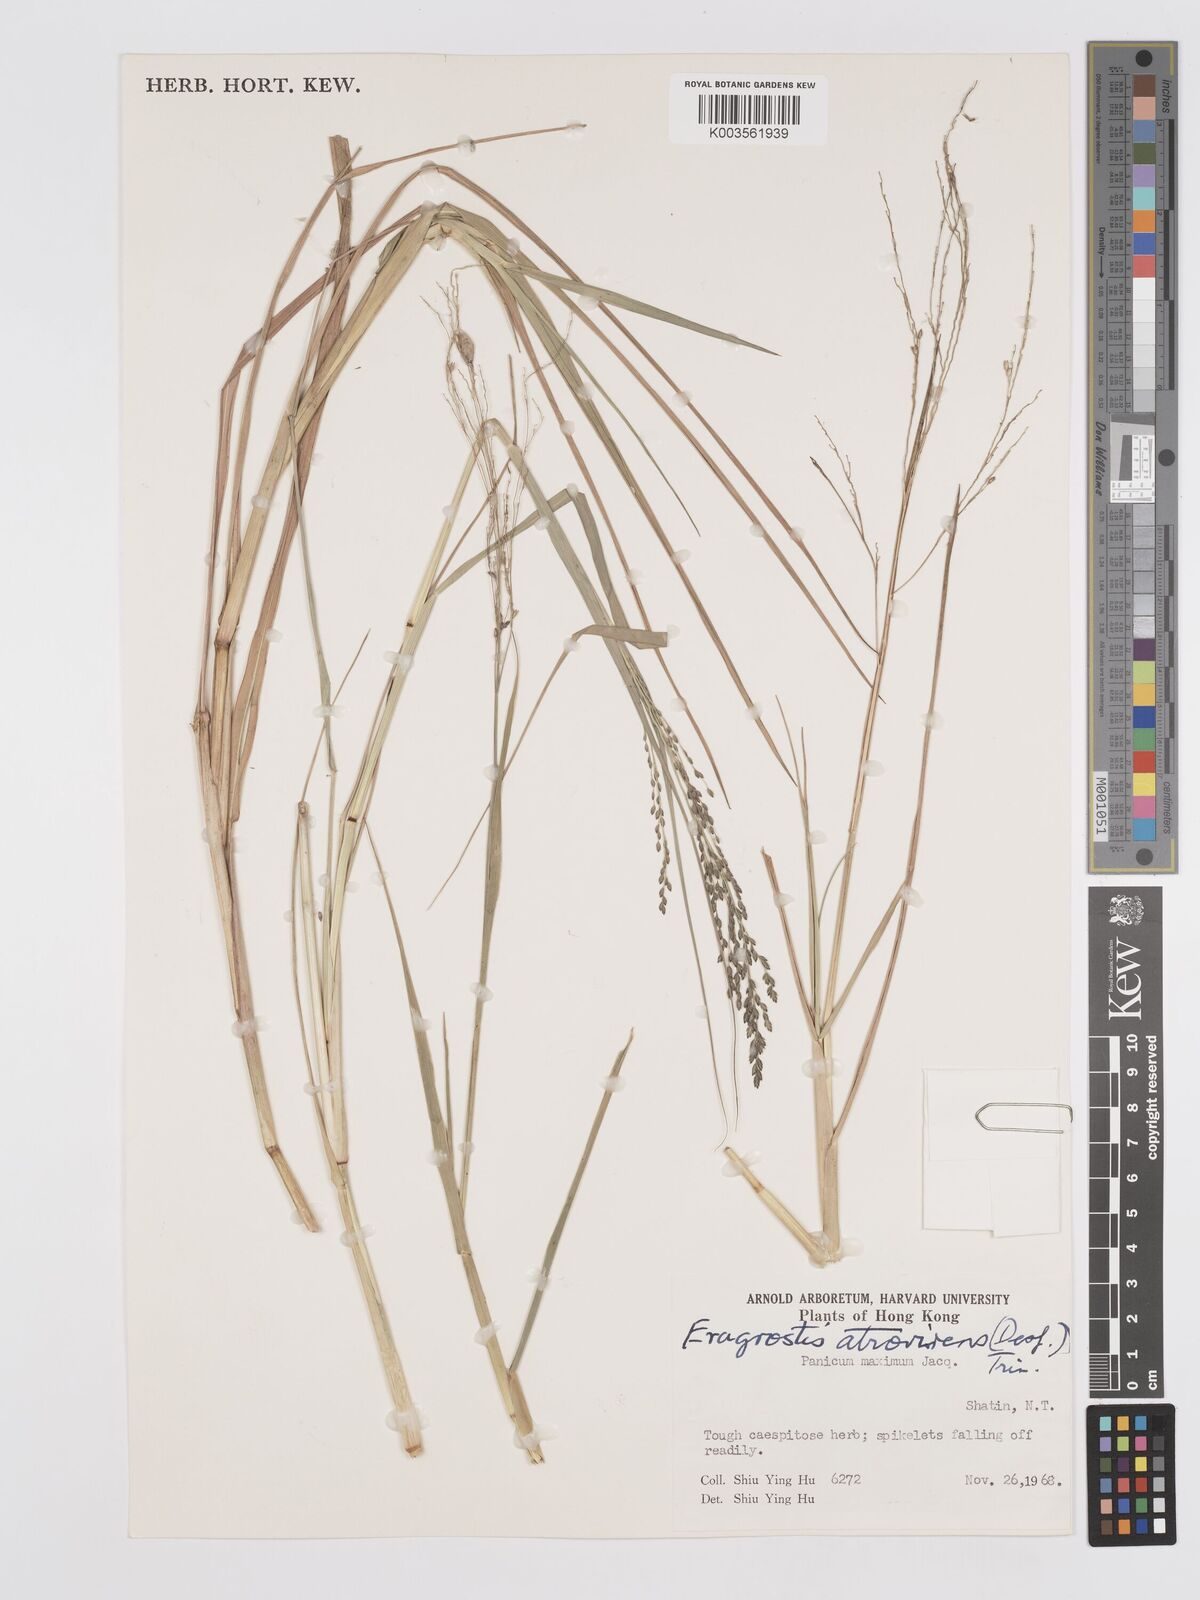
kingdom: Plantae
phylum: Tracheophyta
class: Liliopsida
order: Poales
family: Poaceae
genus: Eragrostis
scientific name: Eragrostis atrovirens
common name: Thalia lovegrass
